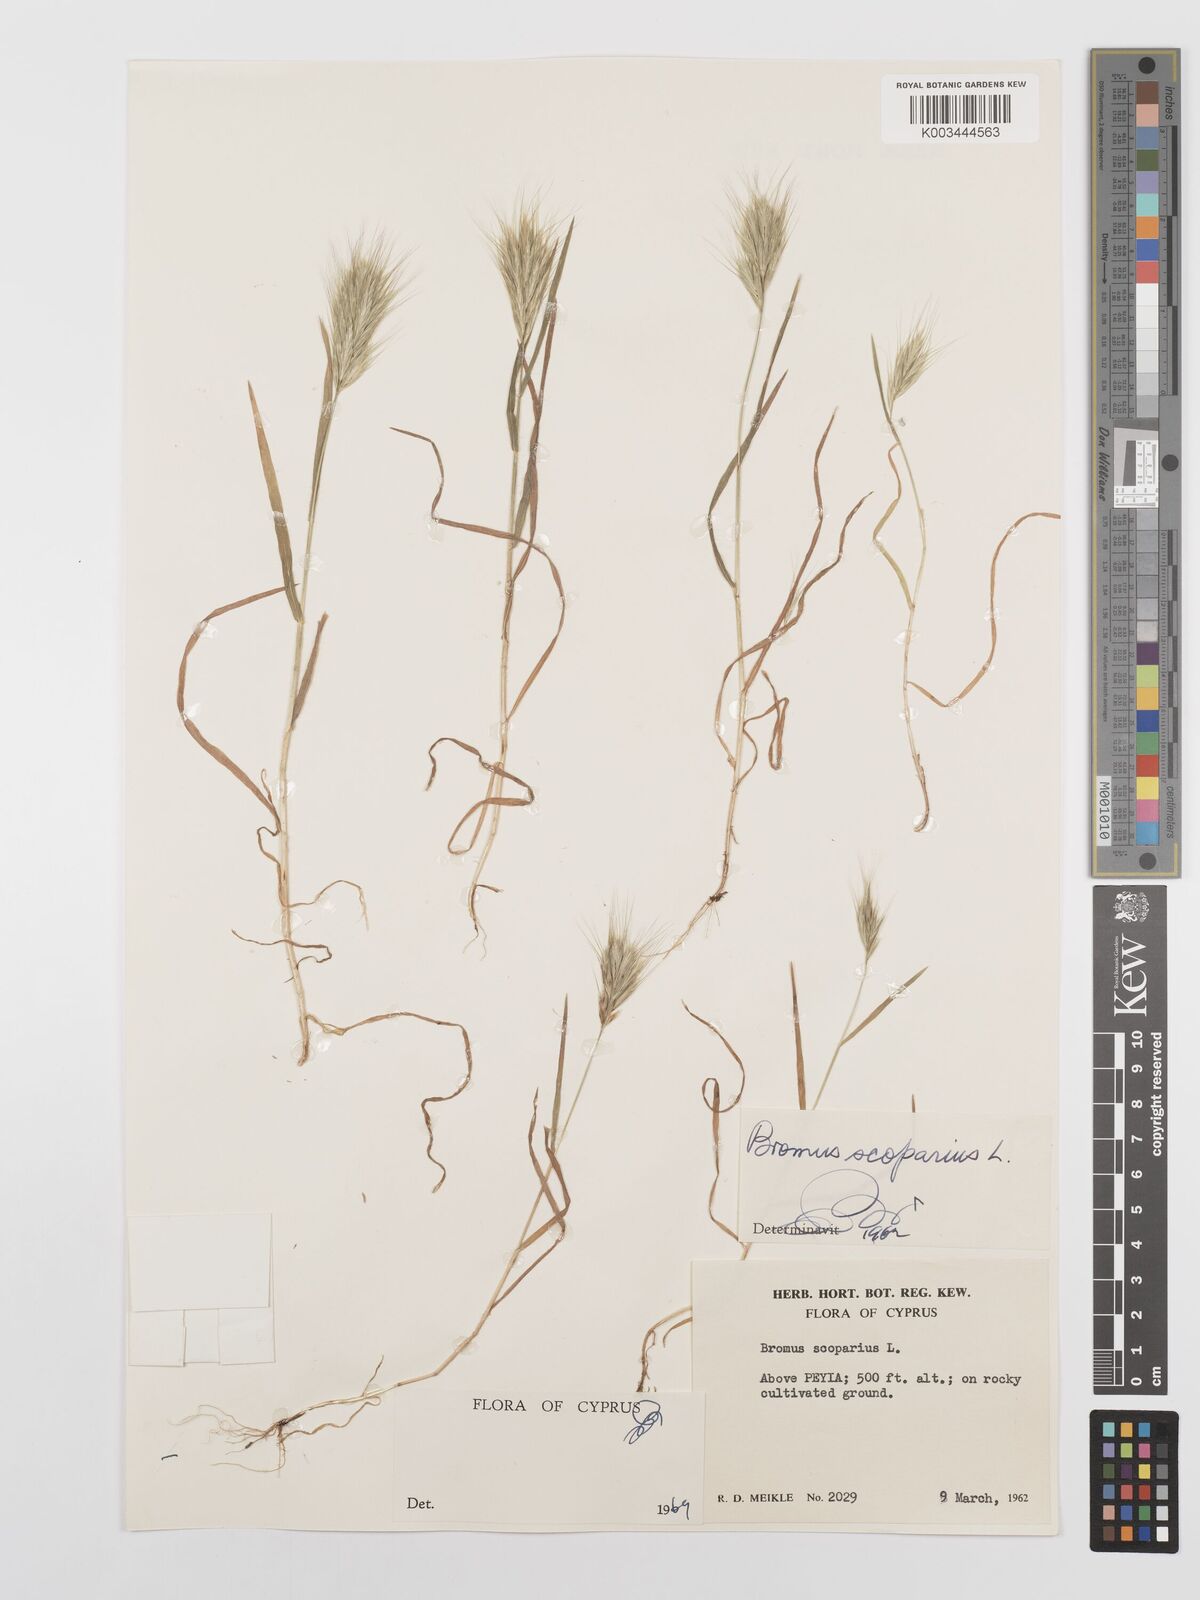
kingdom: Plantae
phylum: Tracheophyta
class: Liliopsida
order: Poales
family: Poaceae
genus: Bromus
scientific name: Bromus scoparius
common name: Broom brome
